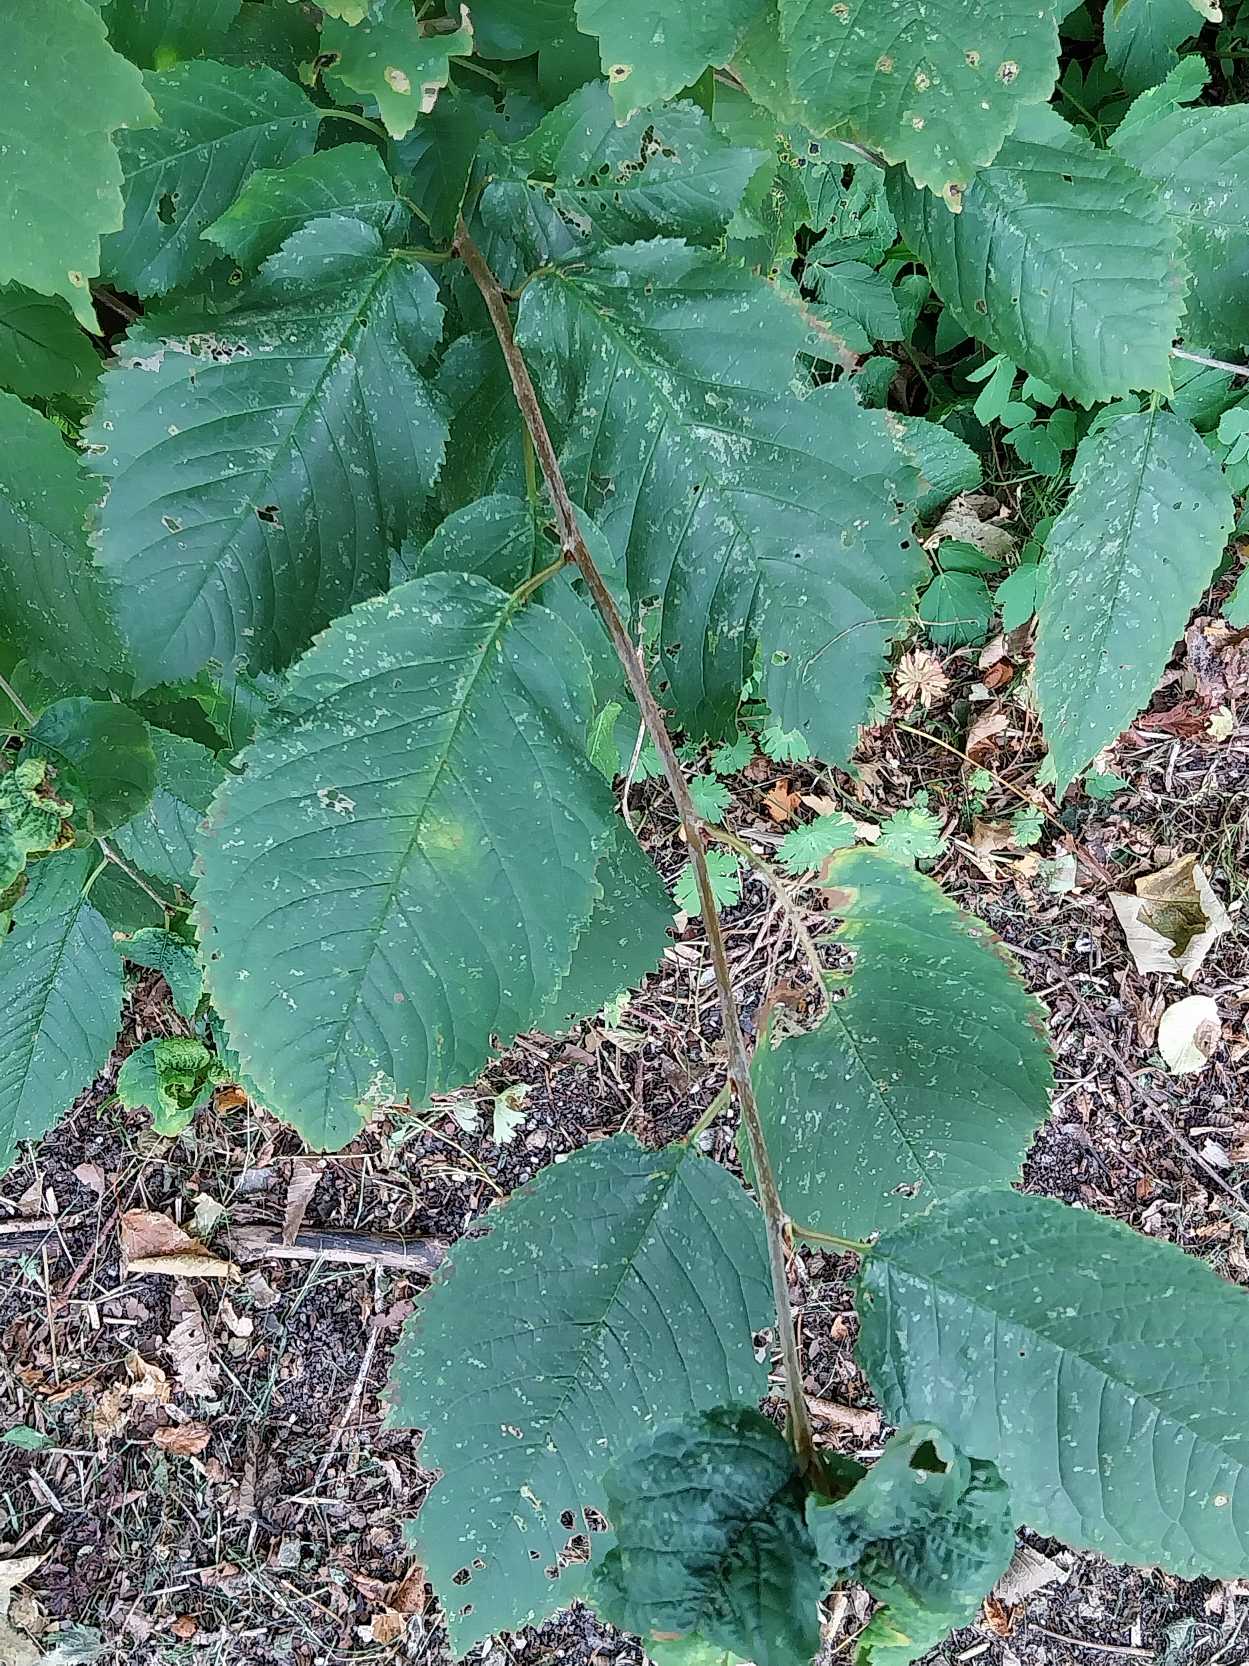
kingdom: Plantae
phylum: Tracheophyta
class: Magnoliopsida
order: Rosales
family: Rosaceae
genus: Prunus
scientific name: Prunus avium
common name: Fugle-kirsebær
